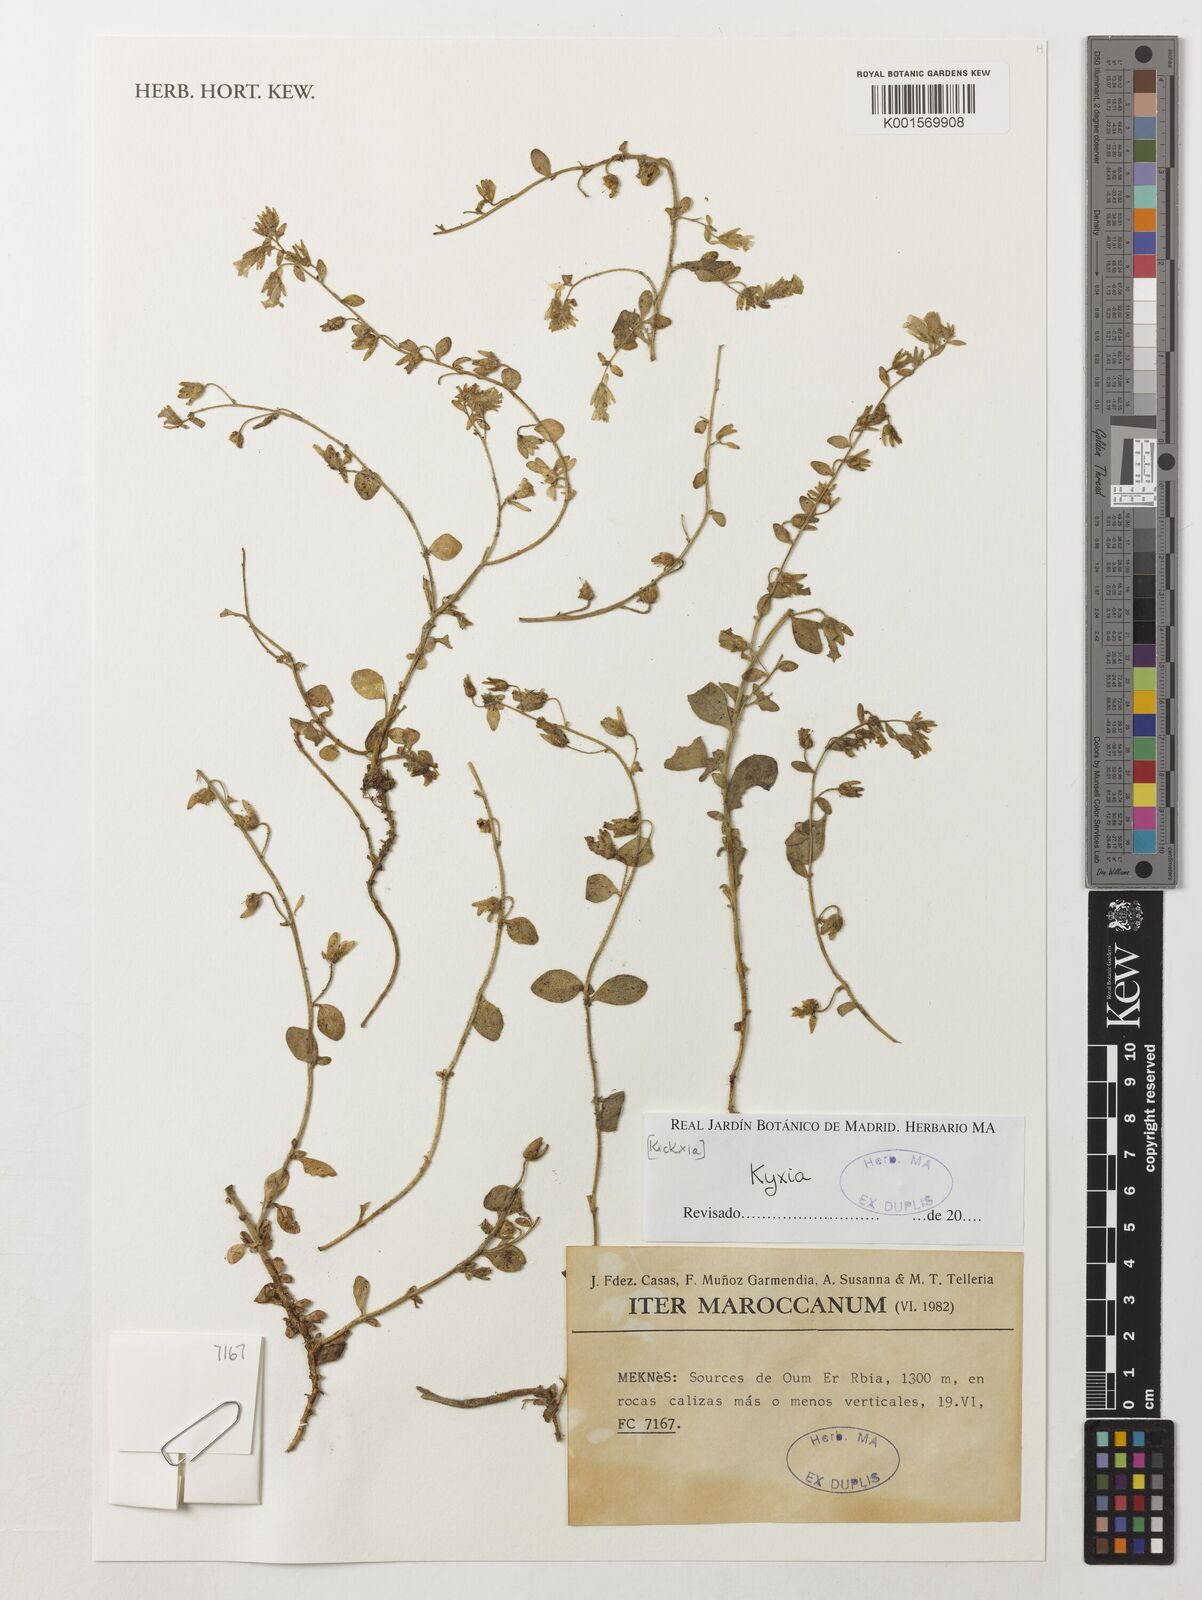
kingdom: Plantae
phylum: Tracheophyta
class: Magnoliopsida
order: Lamiales
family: Plantaginaceae
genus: Kickxia
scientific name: Kickxia
